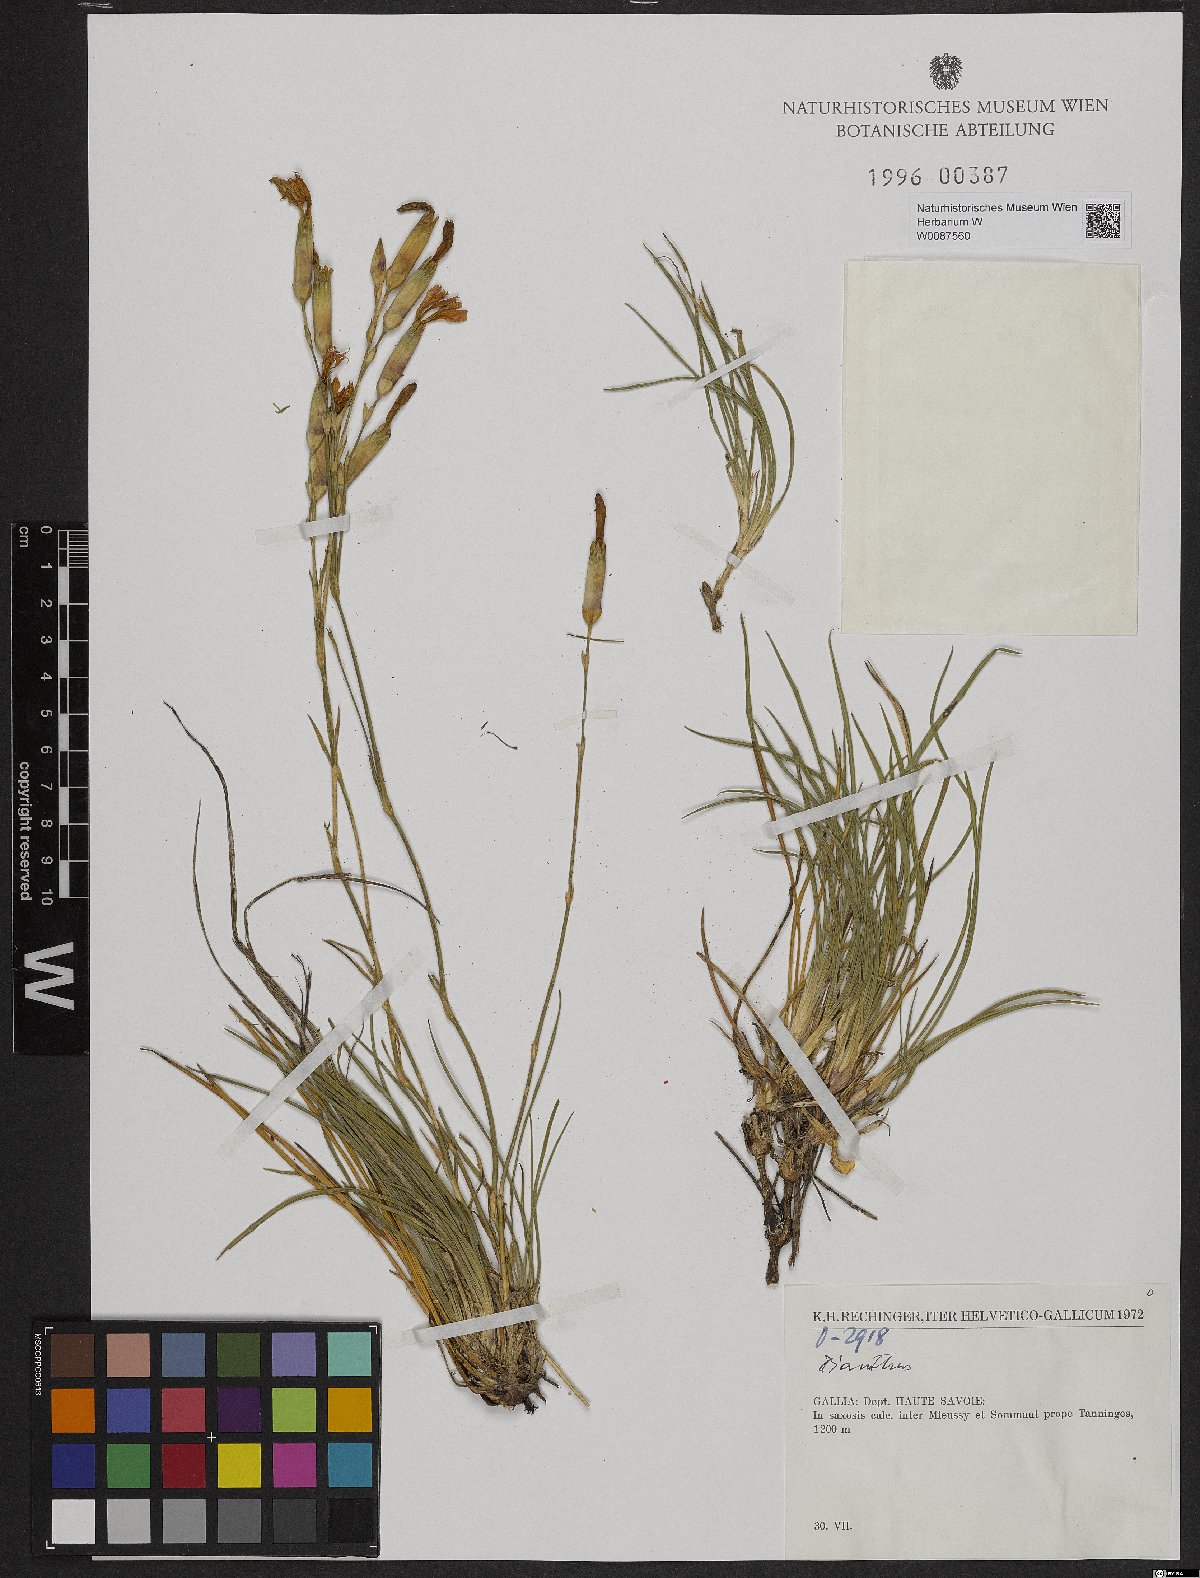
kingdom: Plantae
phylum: Tracheophyta
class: Magnoliopsida
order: Caryophyllales
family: Caryophyllaceae
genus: Dianthus
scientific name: Dianthus
